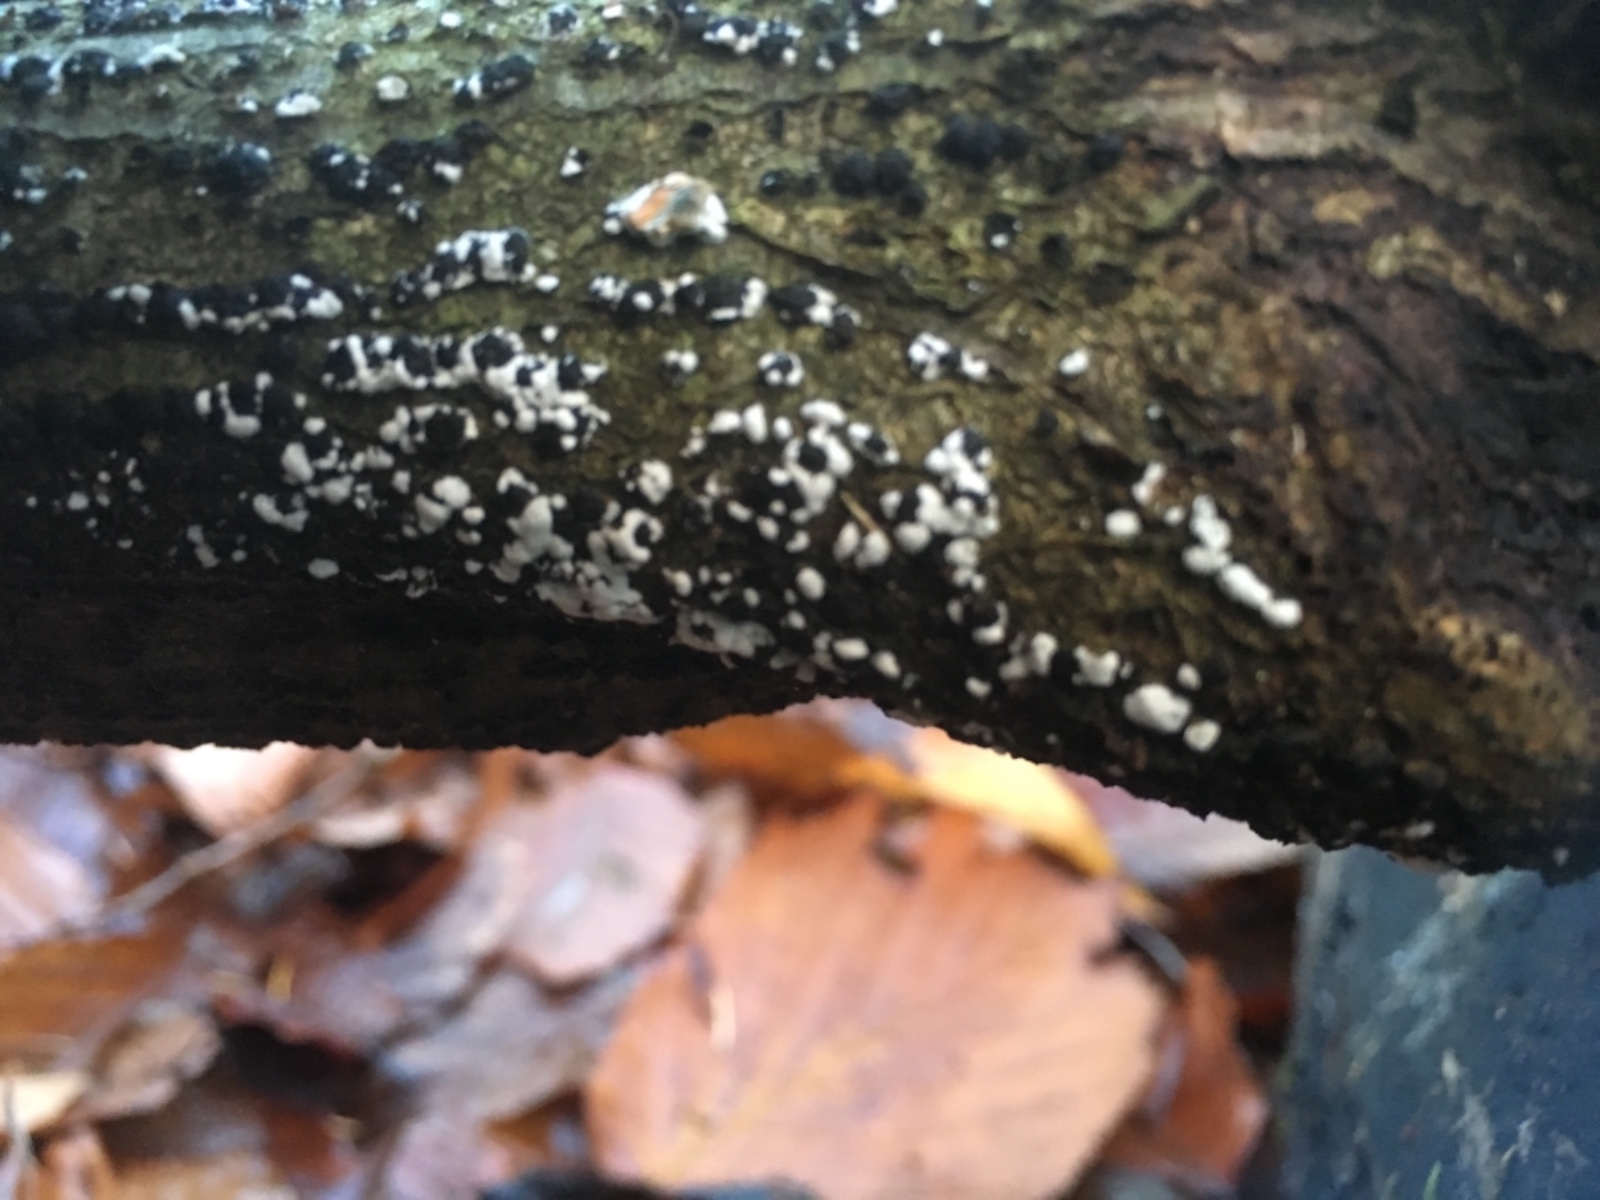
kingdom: Fungi
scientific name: Fungi
